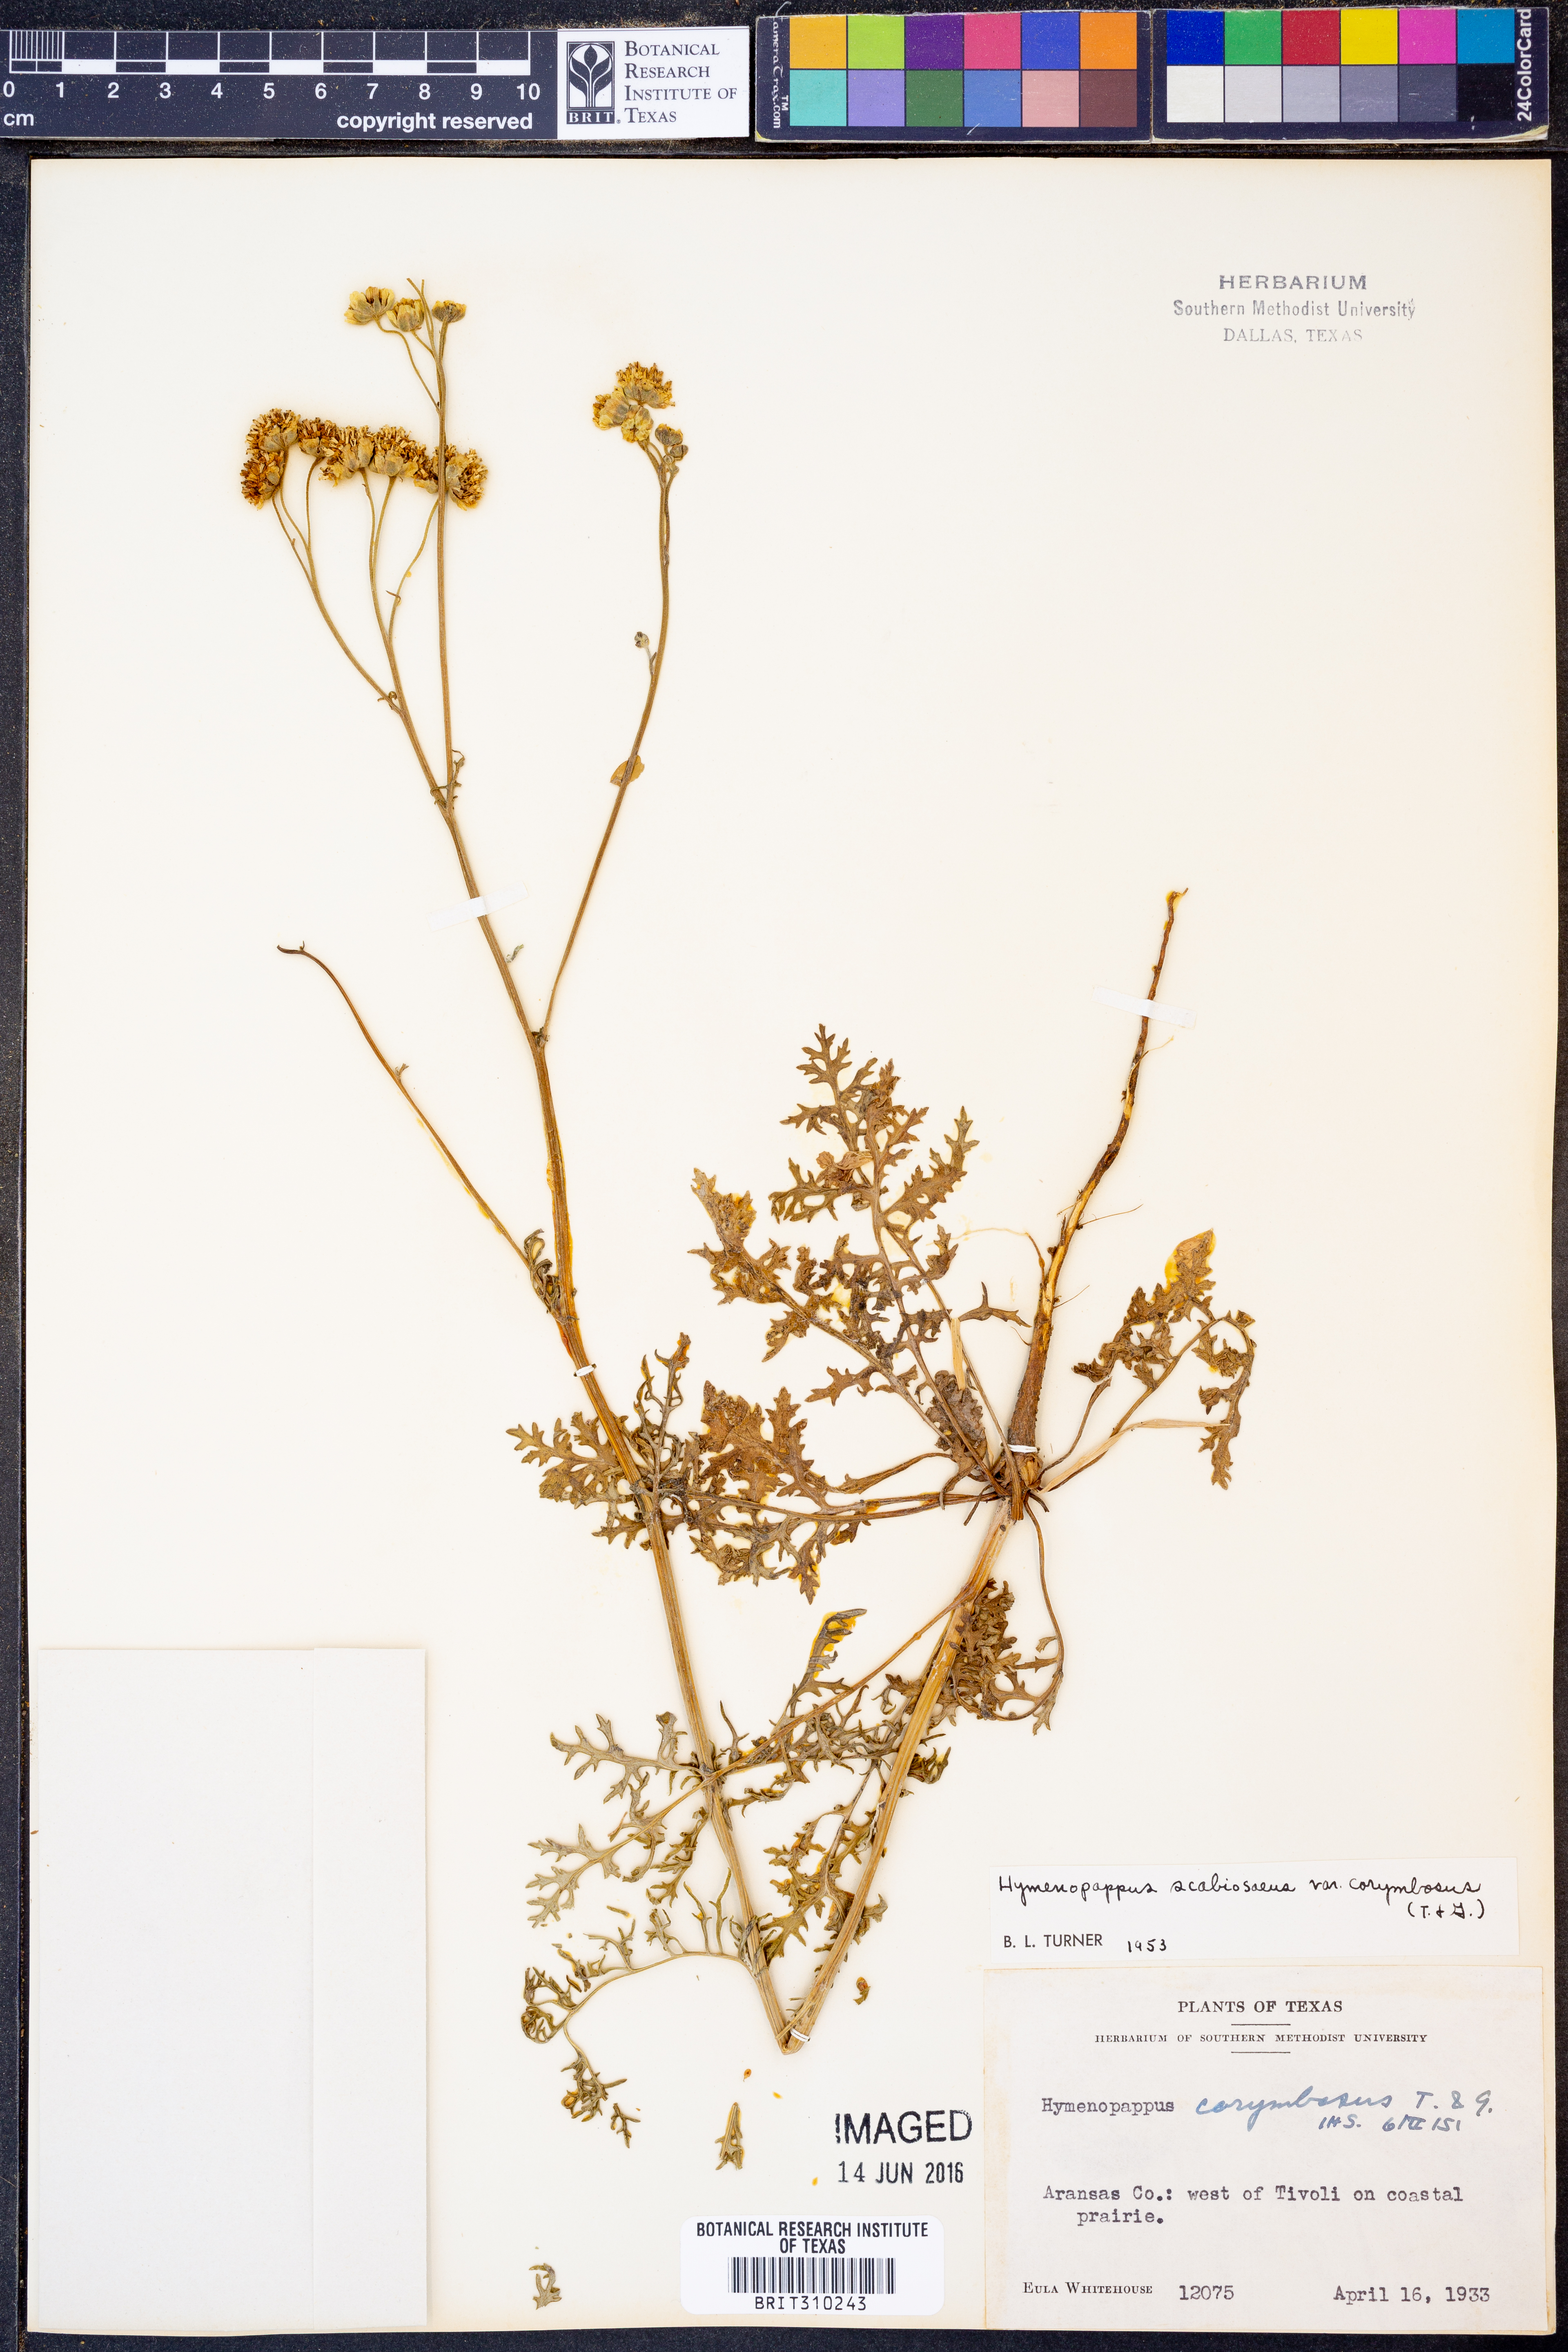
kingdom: Plantae
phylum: Tracheophyta
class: Magnoliopsida
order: Asterales
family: Asteraceae
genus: Hymenopappus
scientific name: Hymenopappus scabiosaeus
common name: Carolina woollywhite
